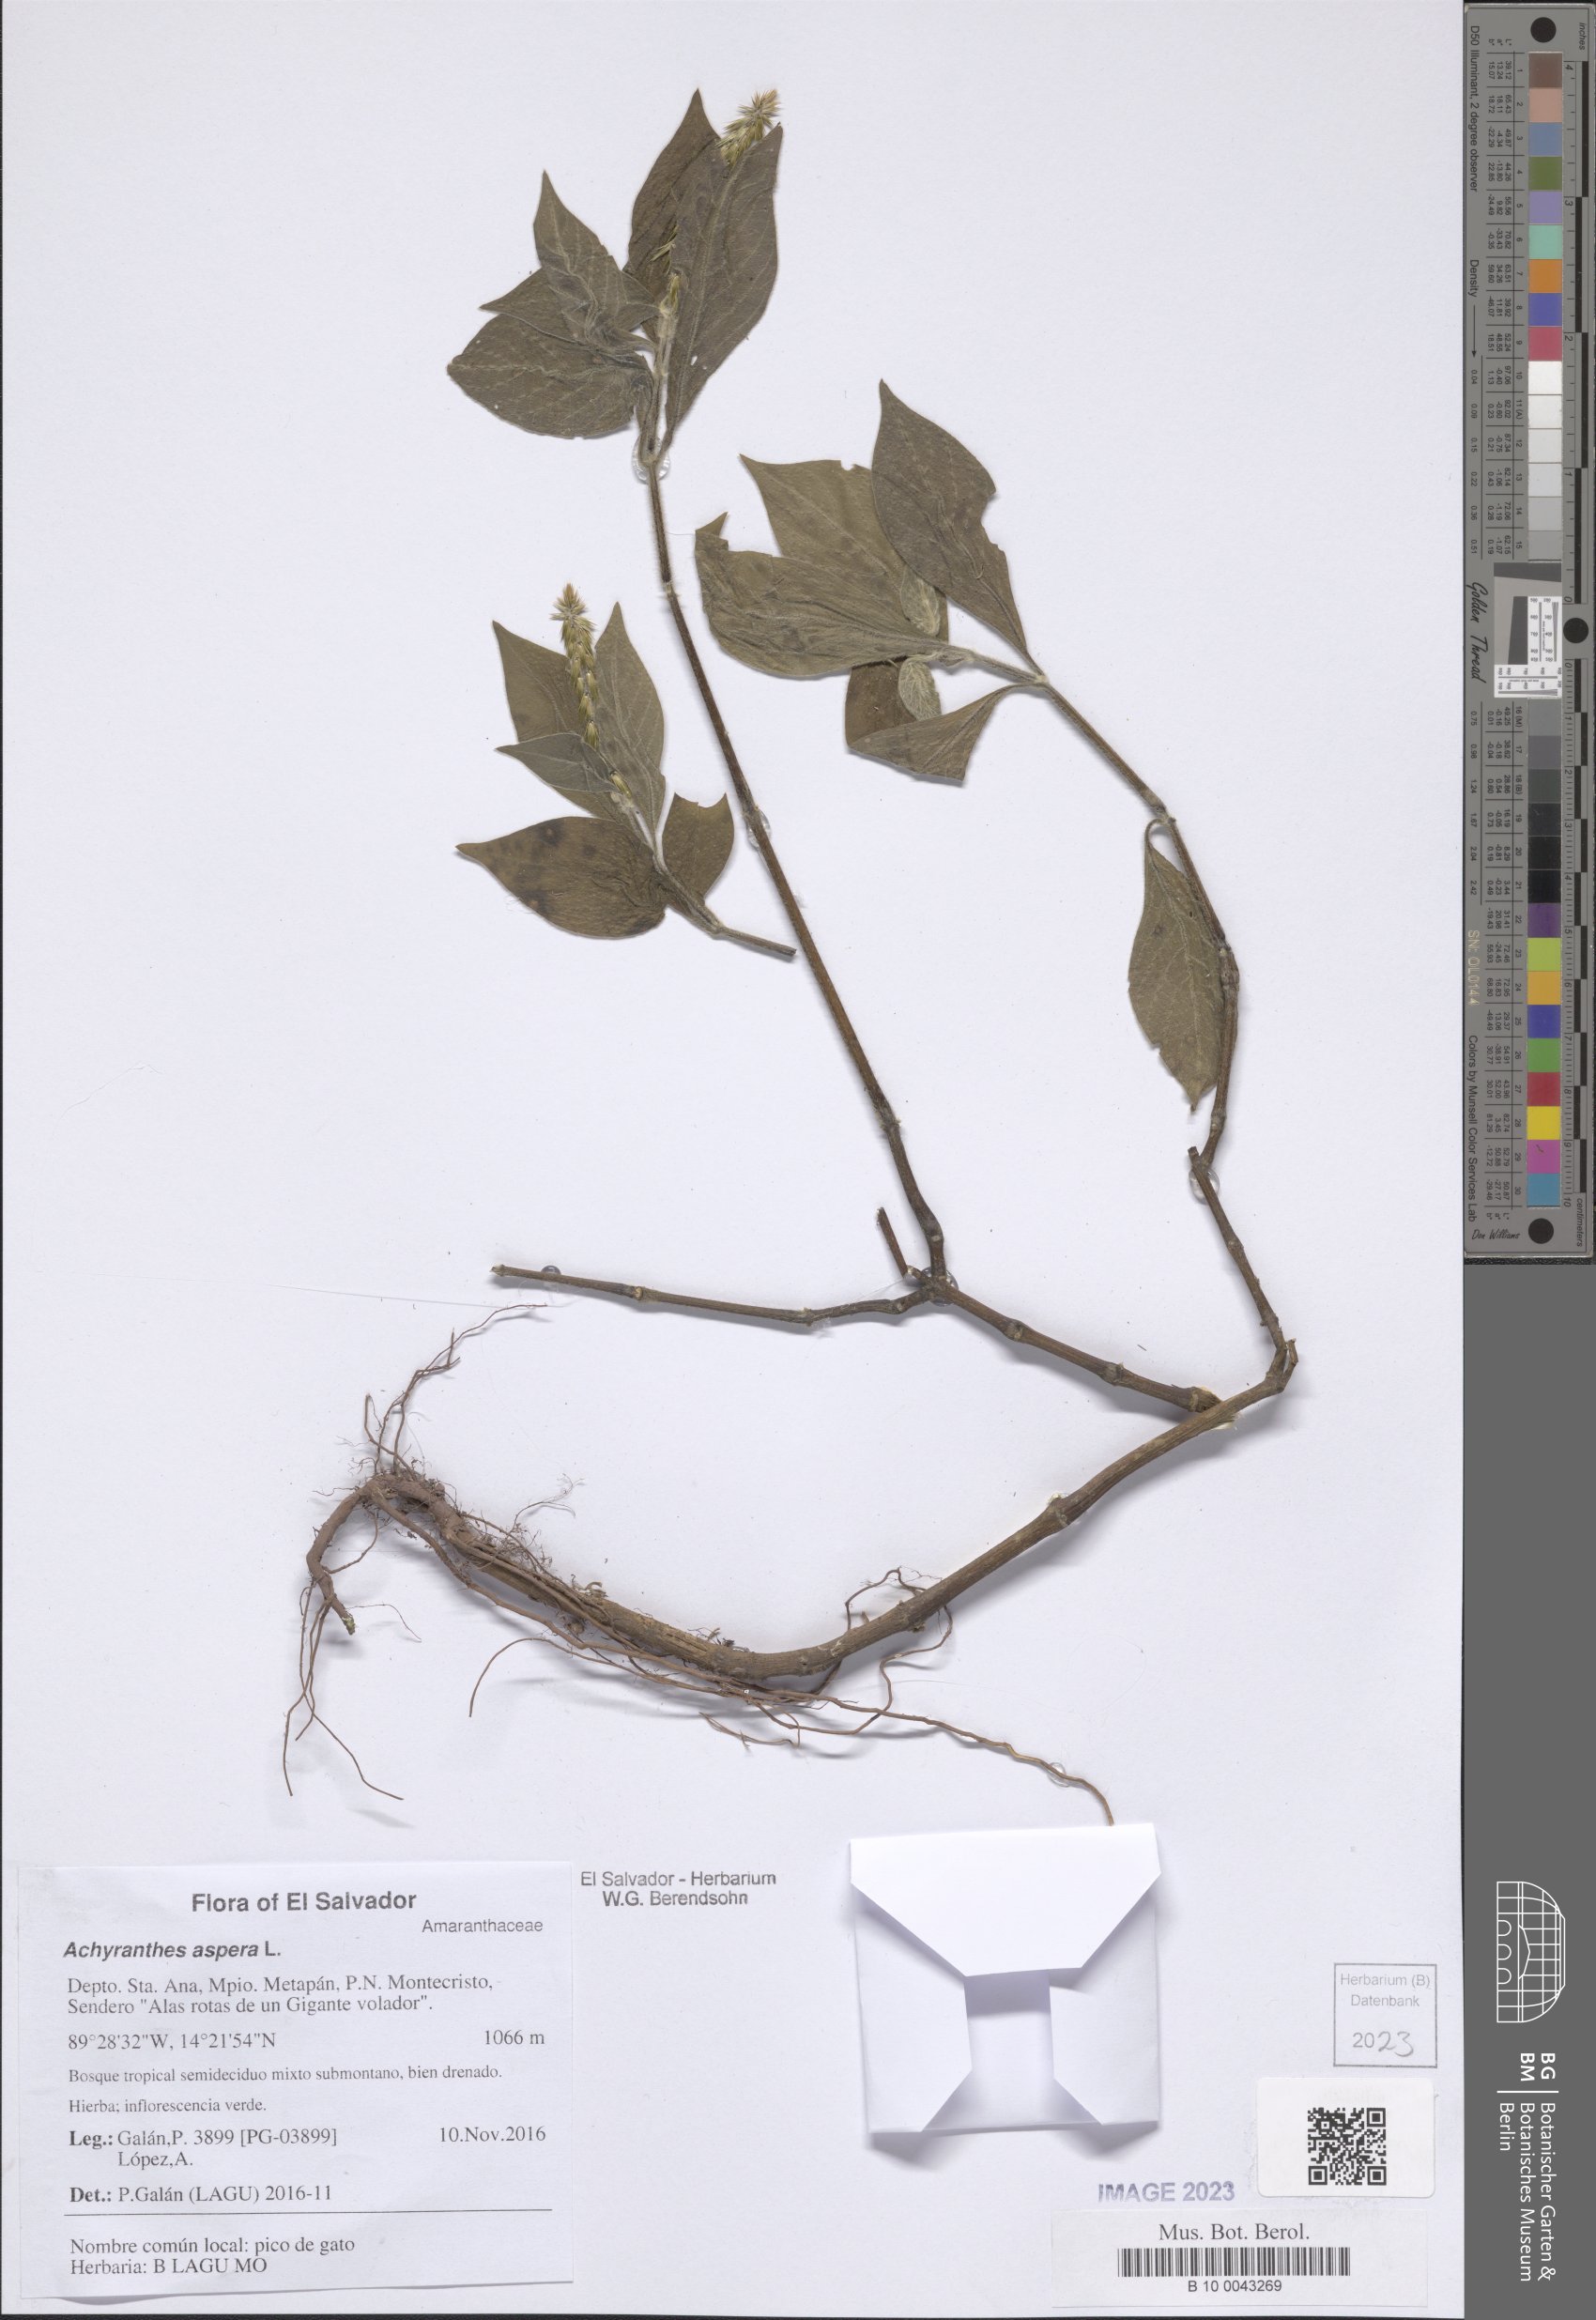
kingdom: Plantae
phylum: Tracheophyta
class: Magnoliopsida
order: Caryophyllales
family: Amaranthaceae
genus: Achyranthes
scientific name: Achyranthes aspera
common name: Devil's horsewhip
